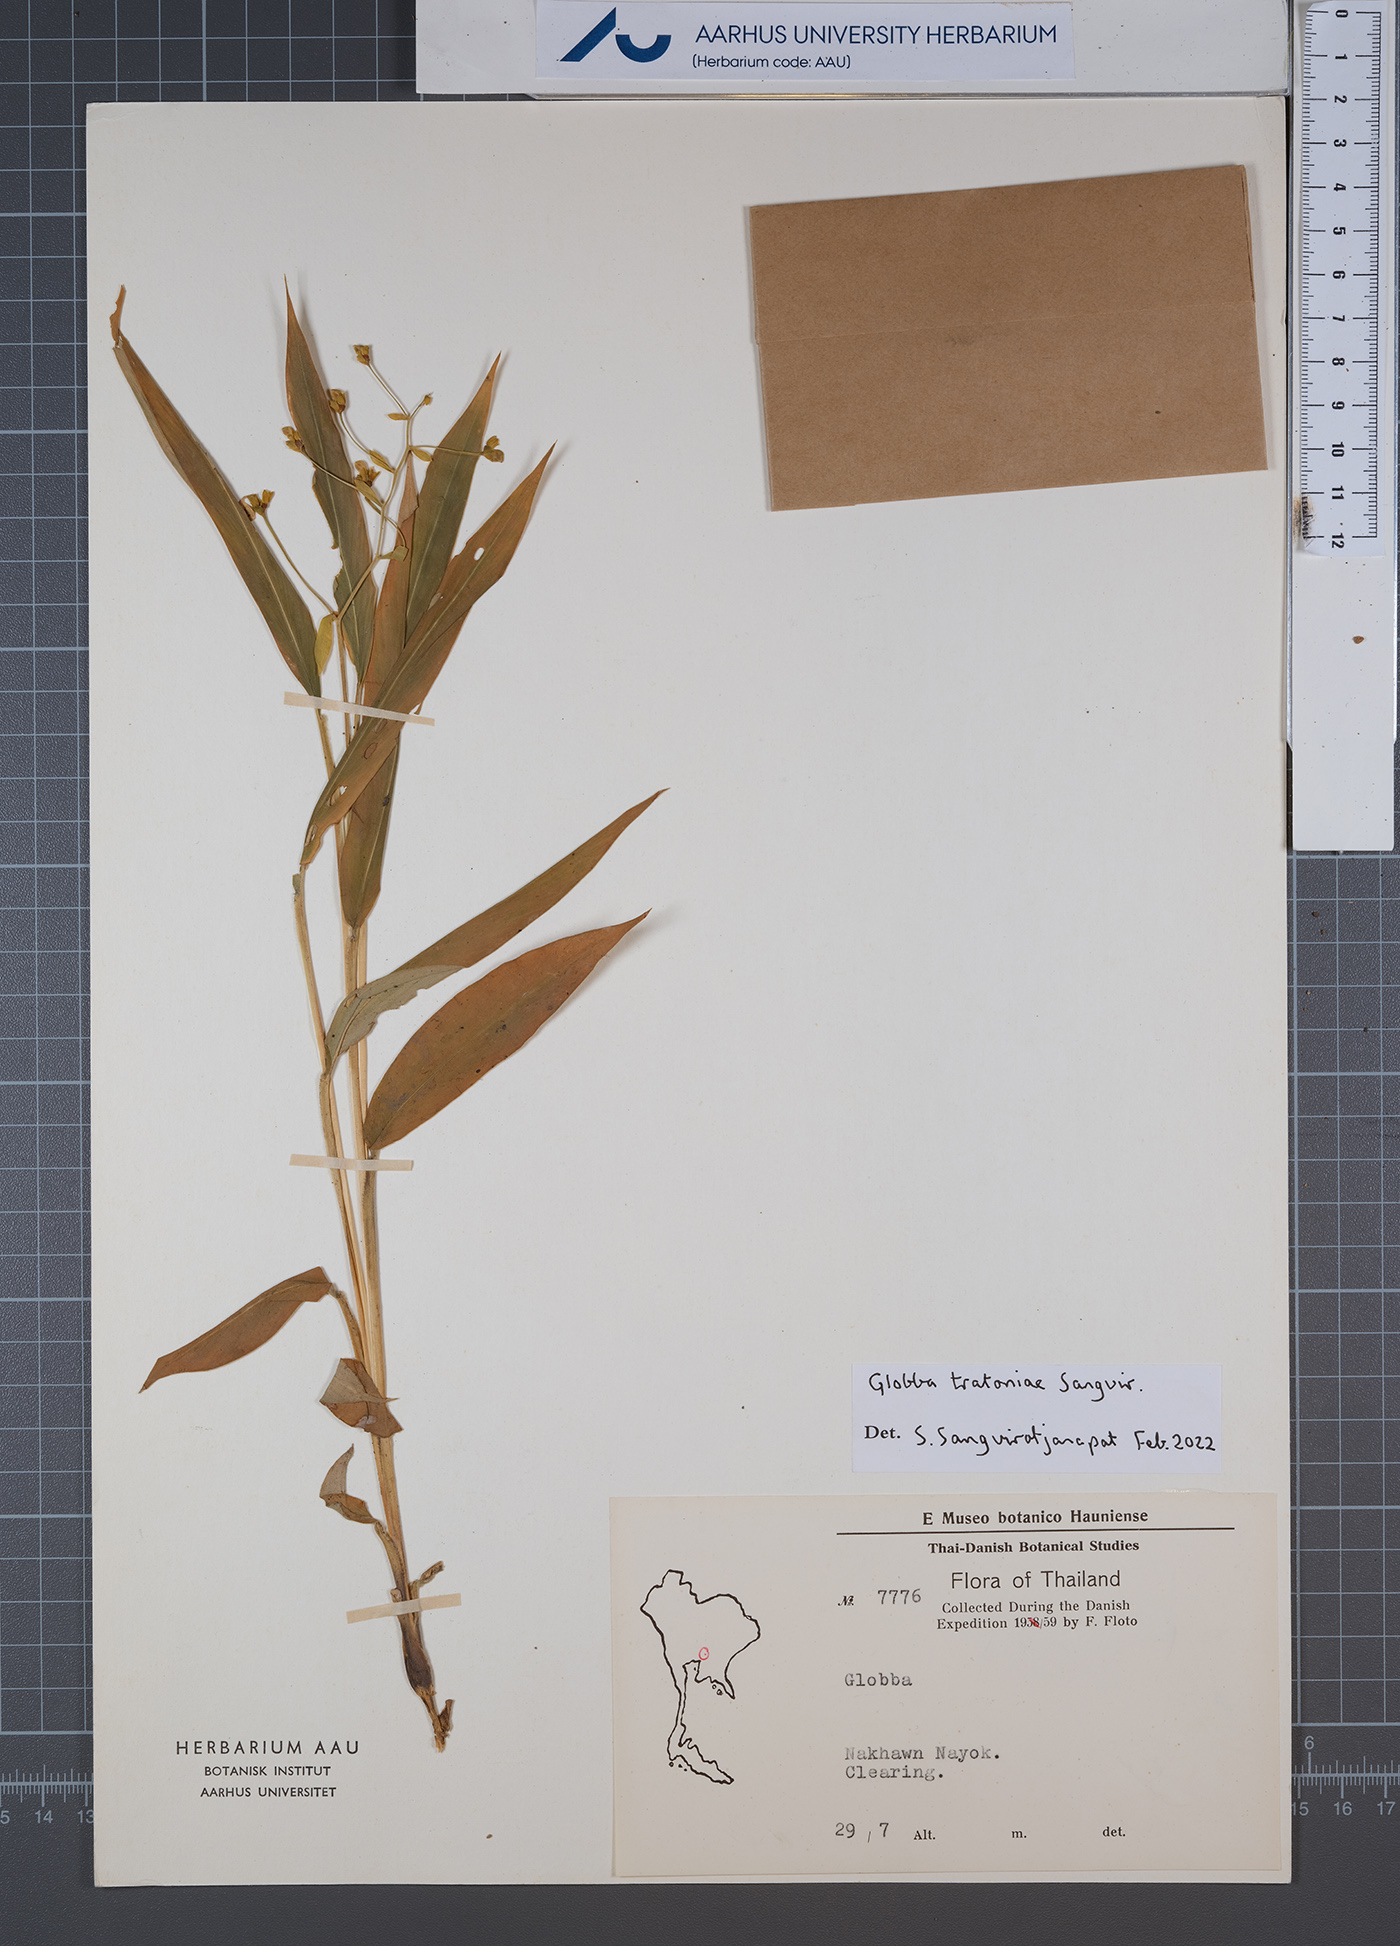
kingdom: Plantae
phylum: Tracheophyta
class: Liliopsida
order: Zingiberales
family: Zingiberaceae
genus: Globba
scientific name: Globba
